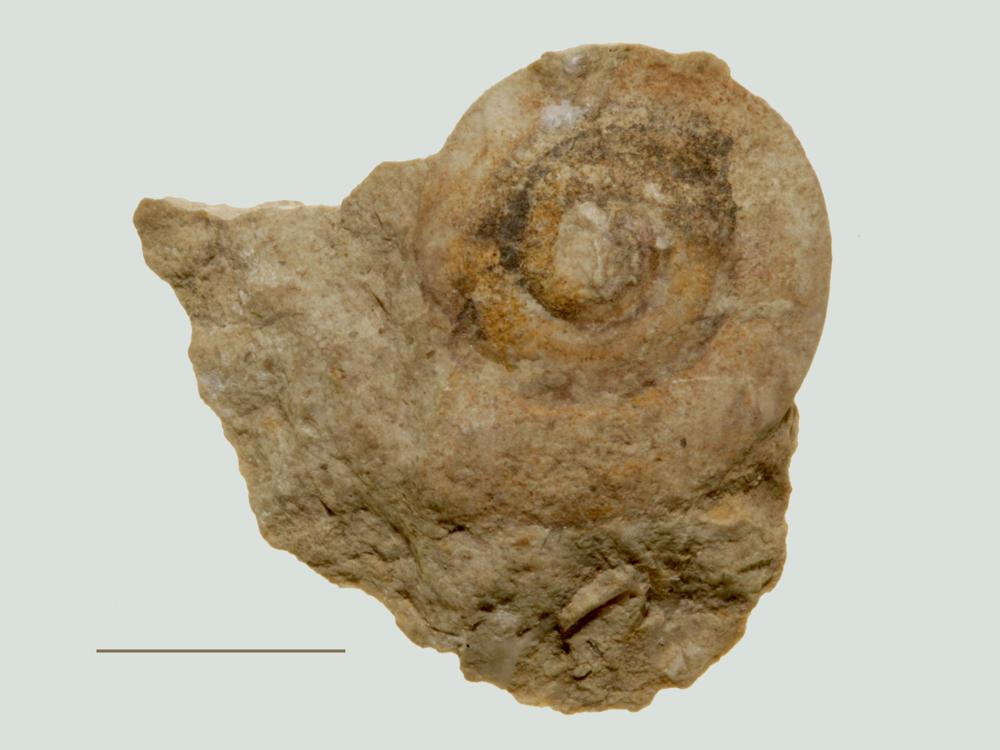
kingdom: Animalia
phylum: Mollusca
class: Gastropoda
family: Bellerophontidae
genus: Cymbularia
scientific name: Cymbularia lenticularis
